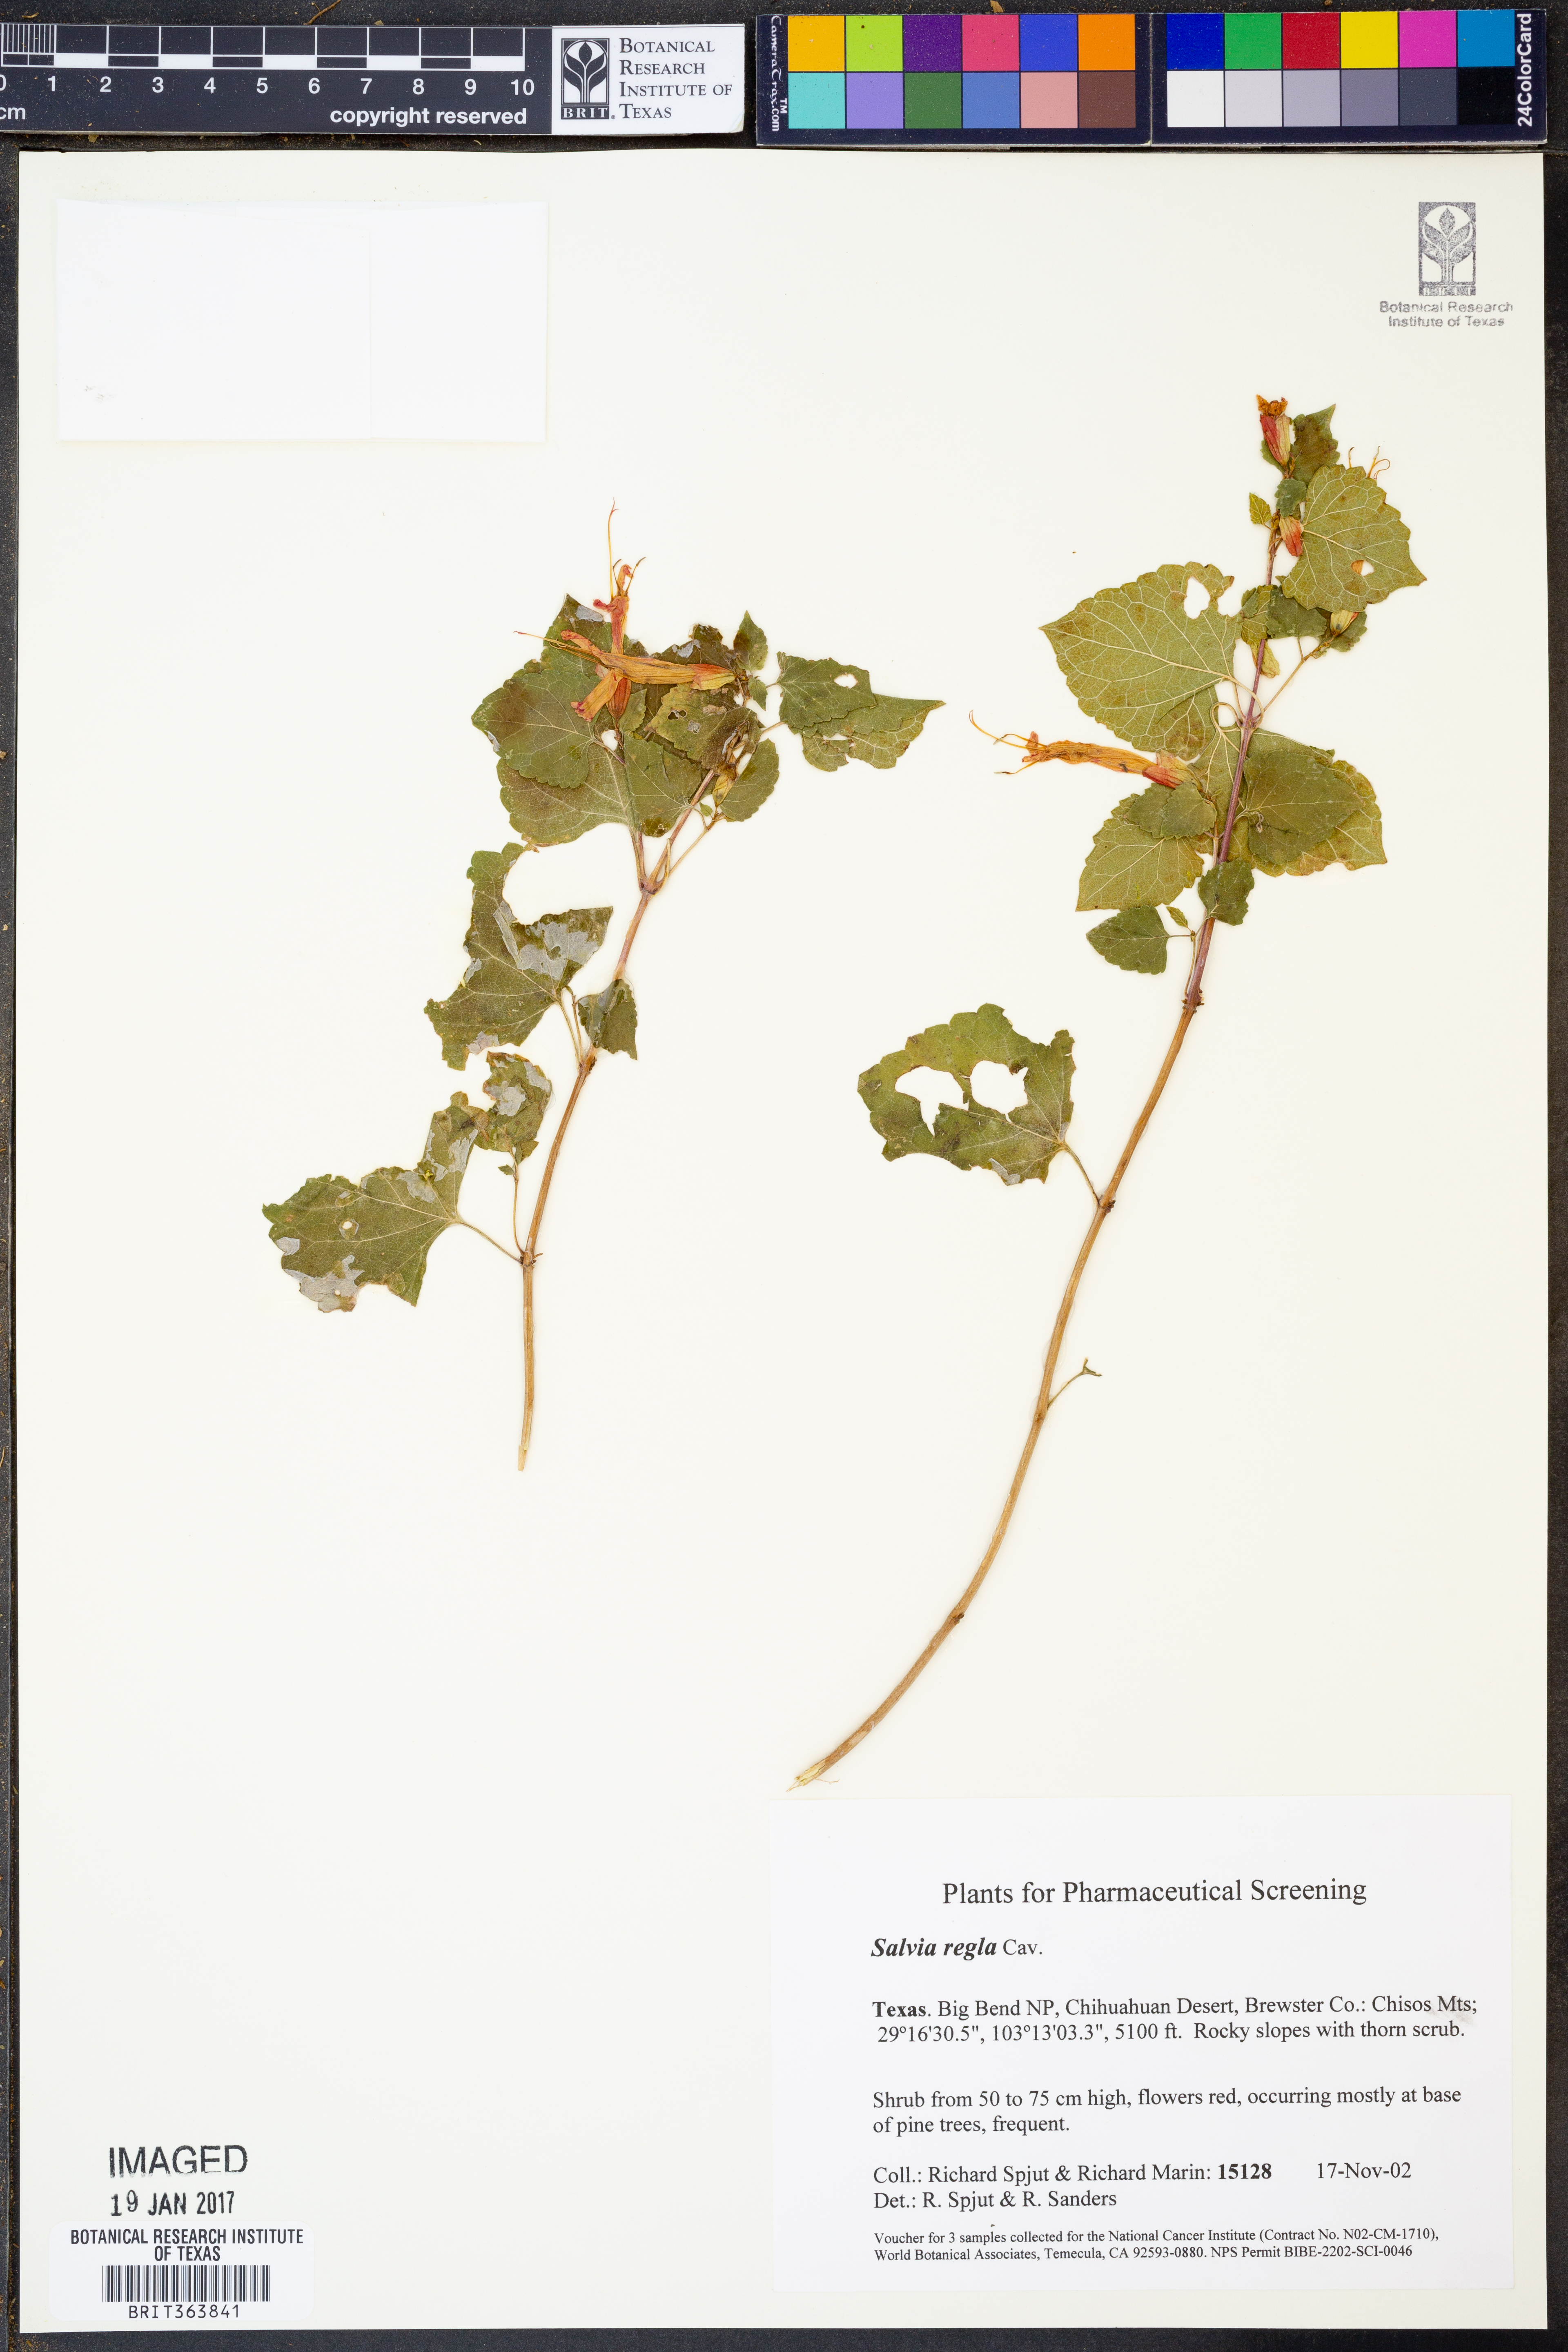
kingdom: Plantae
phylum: Tracheophyta
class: Magnoliopsida
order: Lamiales
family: Lamiaceae
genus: Salvia
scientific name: Salvia regla
